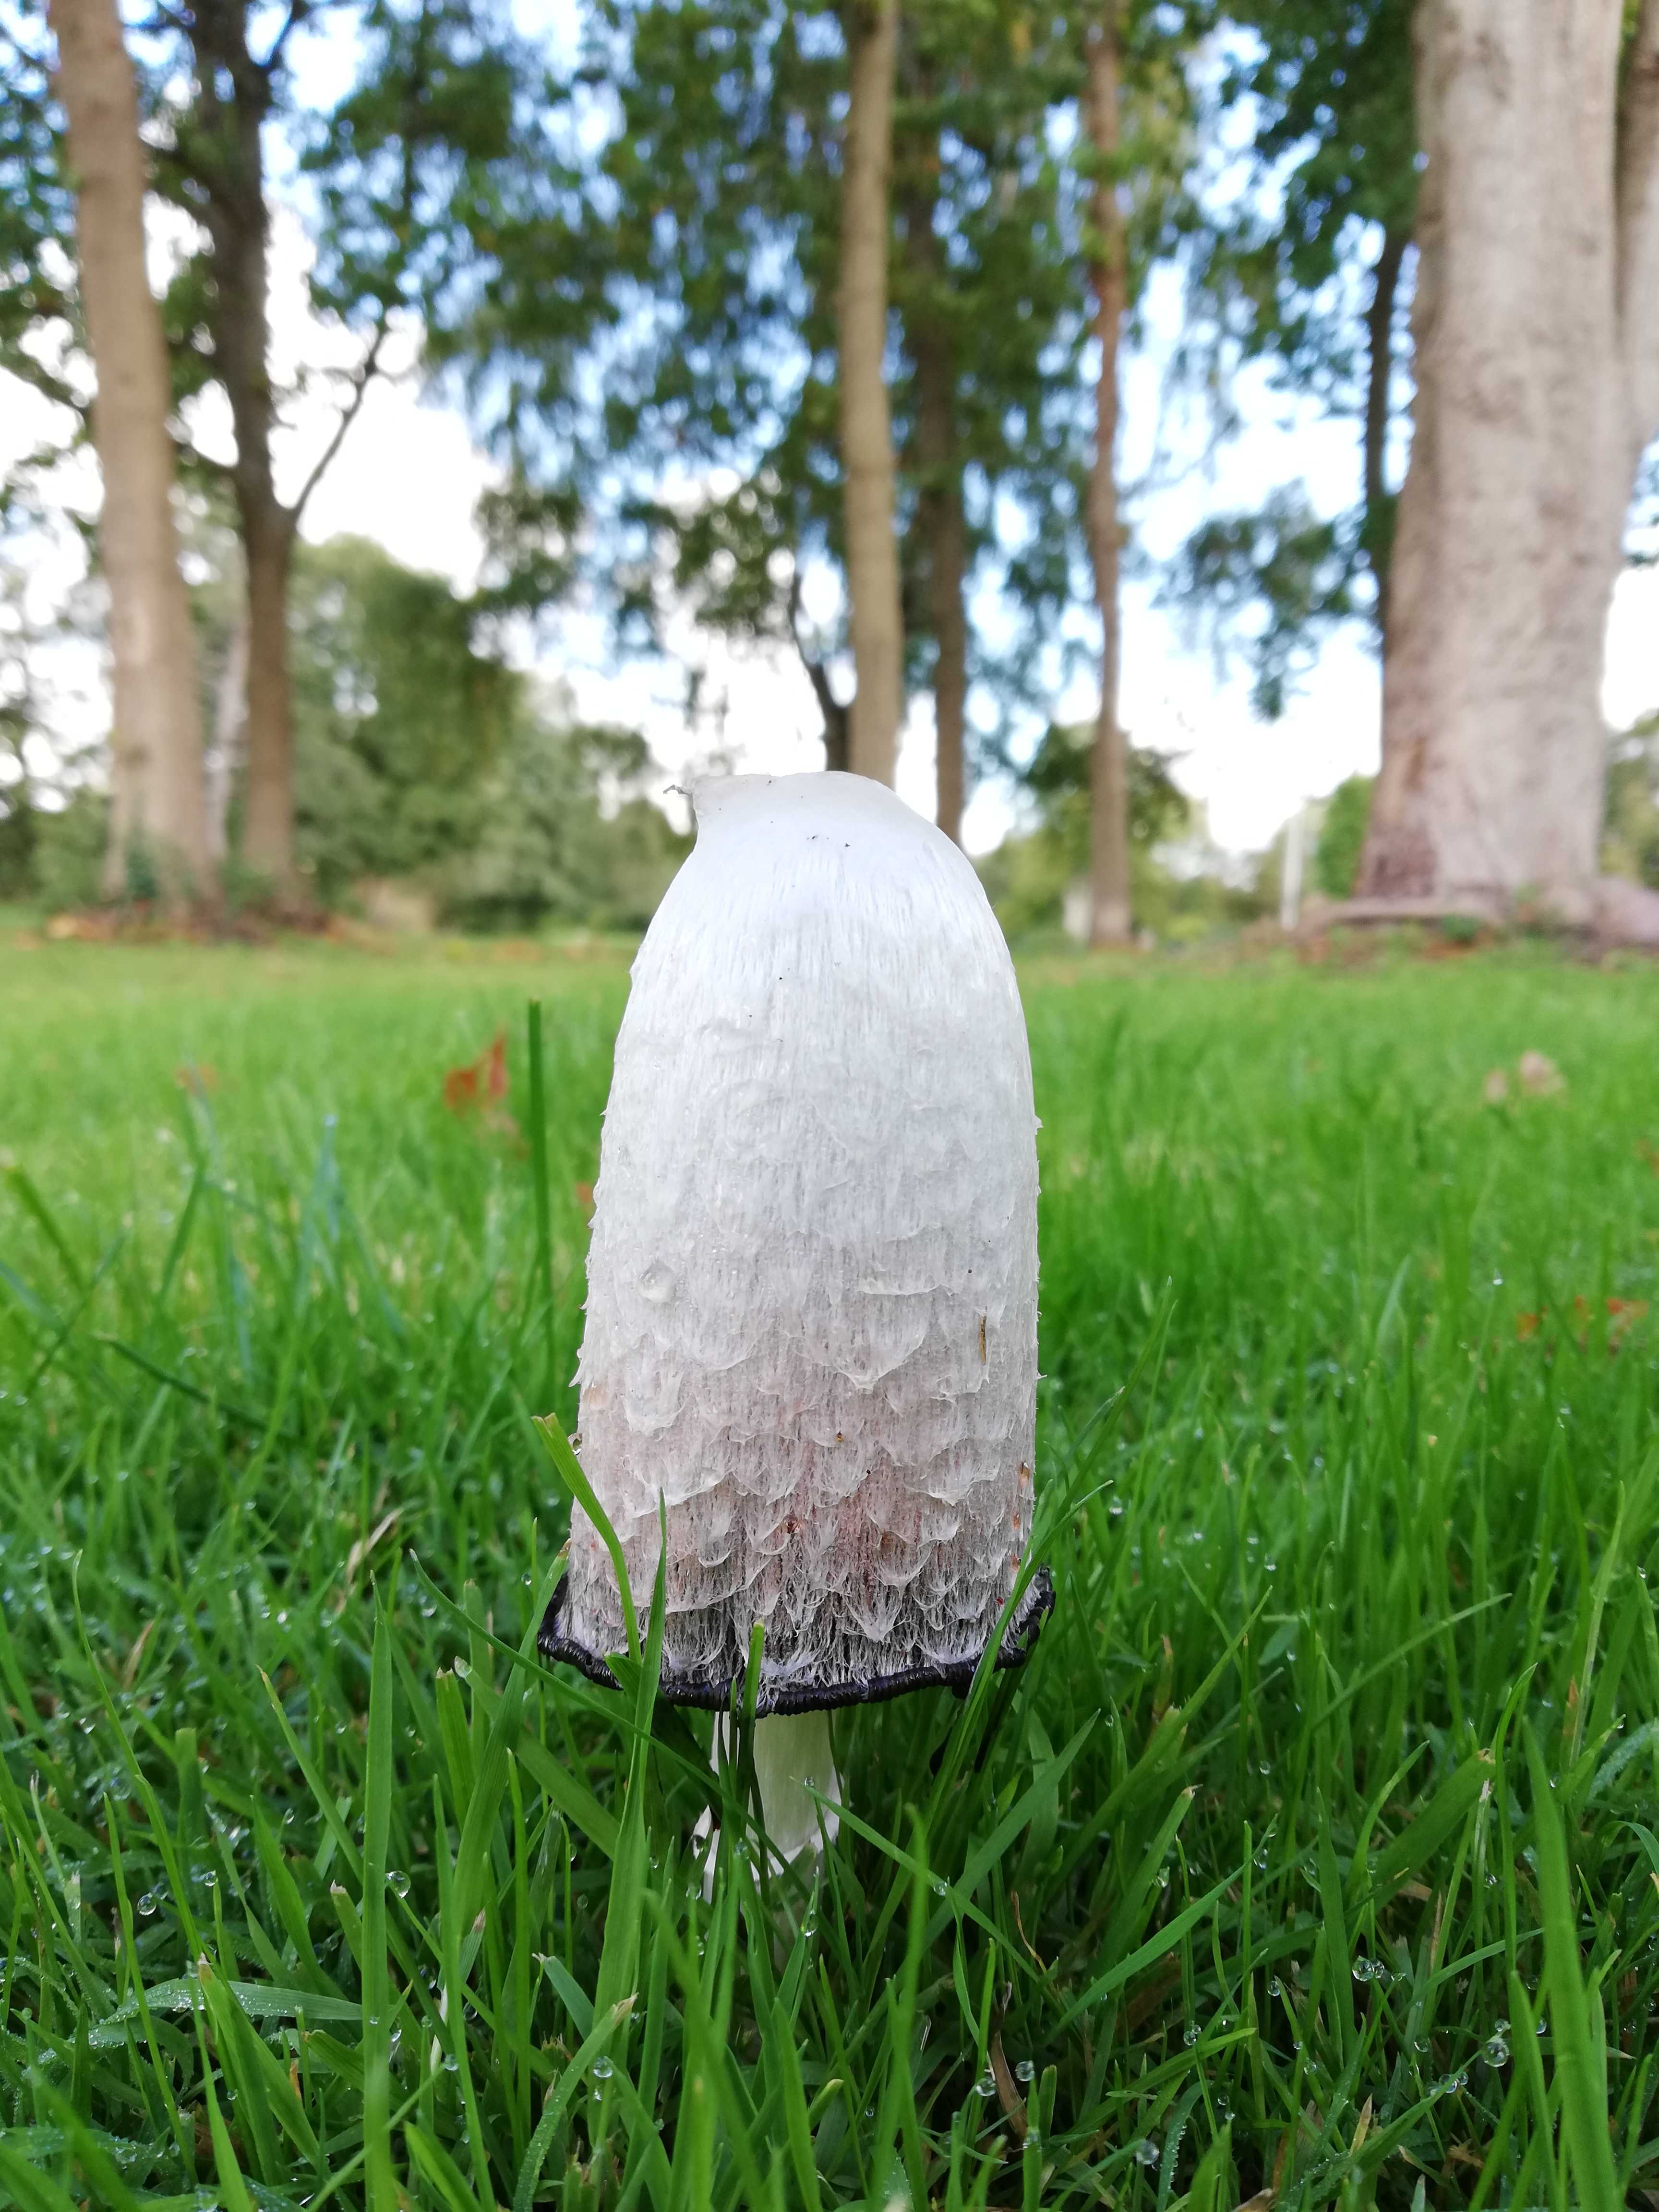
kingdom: Fungi
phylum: Basidiomycota
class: Agaricomycetes
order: Agaricales
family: Agaricaceae
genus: Coprinus
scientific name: Coprinus comatus
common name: stor parykhat
